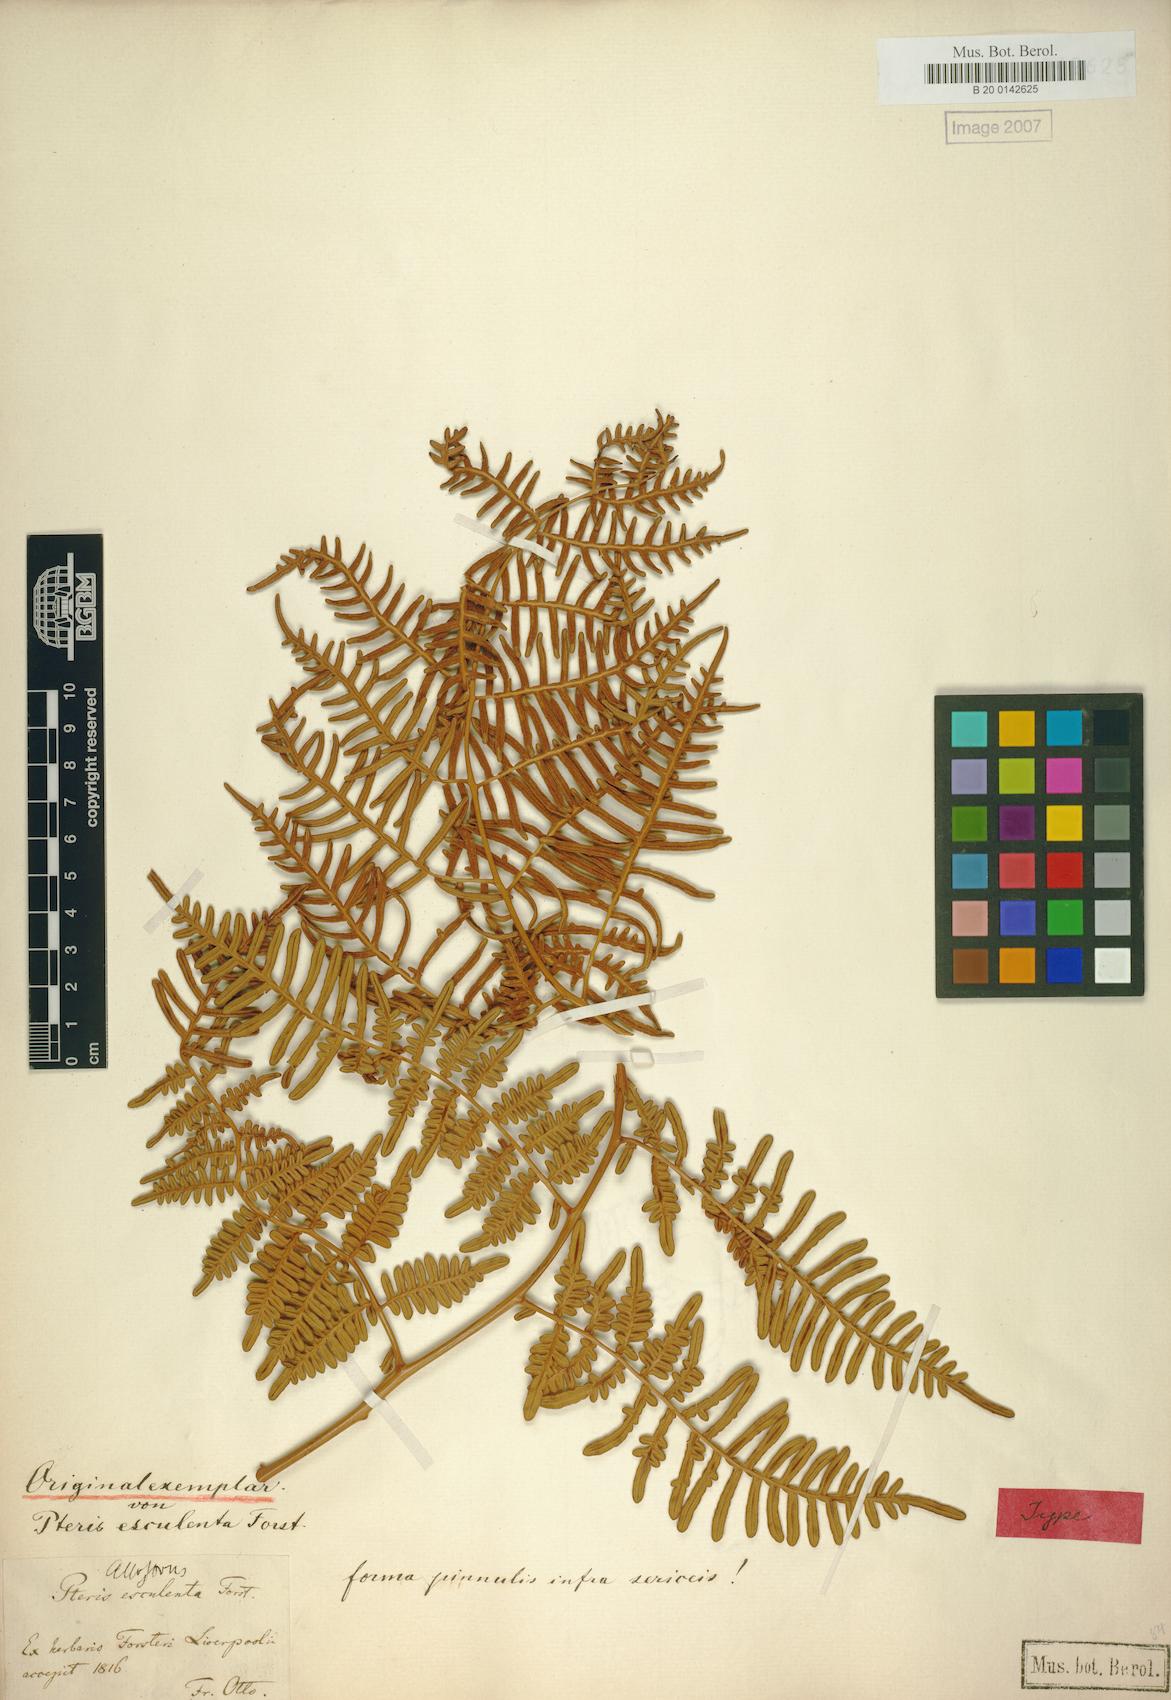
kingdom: Plantae
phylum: Tracheophyta
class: Polypodiopsida
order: Polypodiales
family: Dennstaedtiaceae
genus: Pteridium
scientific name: Pteridium esculentum
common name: Bracken fern
